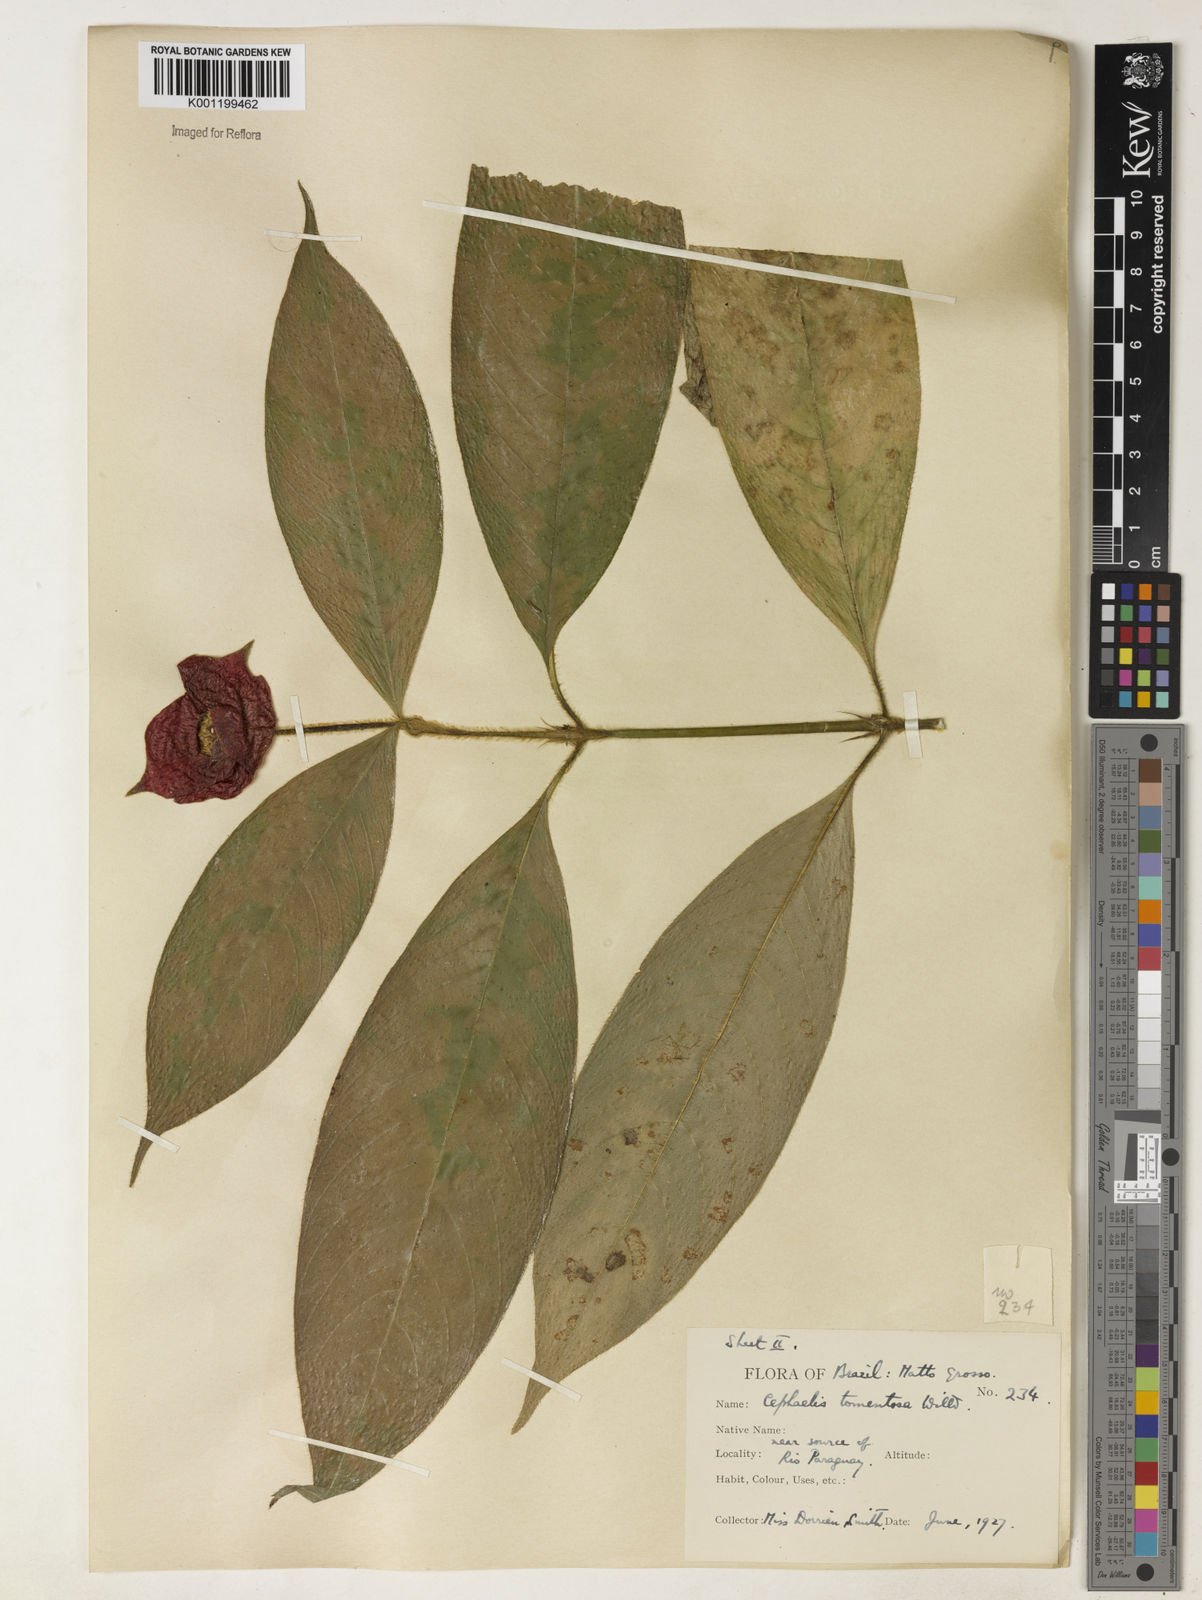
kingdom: Plantae
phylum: Tracheophyta
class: Magnoliopsida
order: Gentianales
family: Rubiaceae
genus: Psychotria
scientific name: Psychotria
